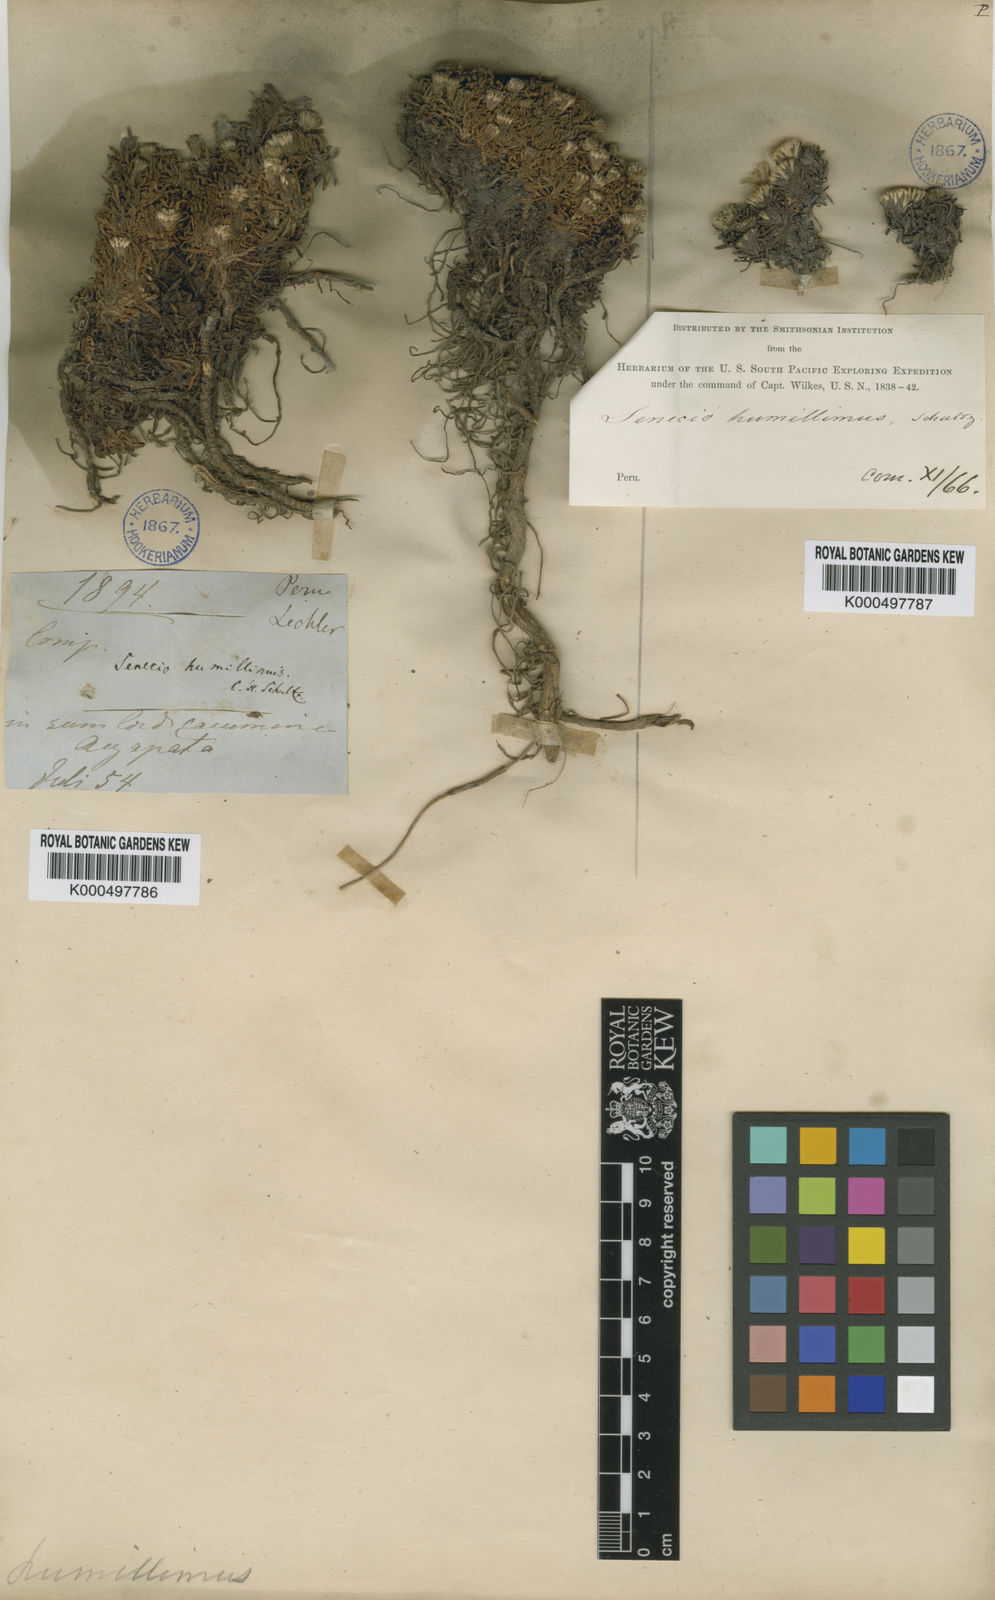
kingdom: Plantae
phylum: Tracheophyta
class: Magnoliopsida
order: Asterales
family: Asteraceae
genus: Senecio
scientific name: Senecio humillimus
